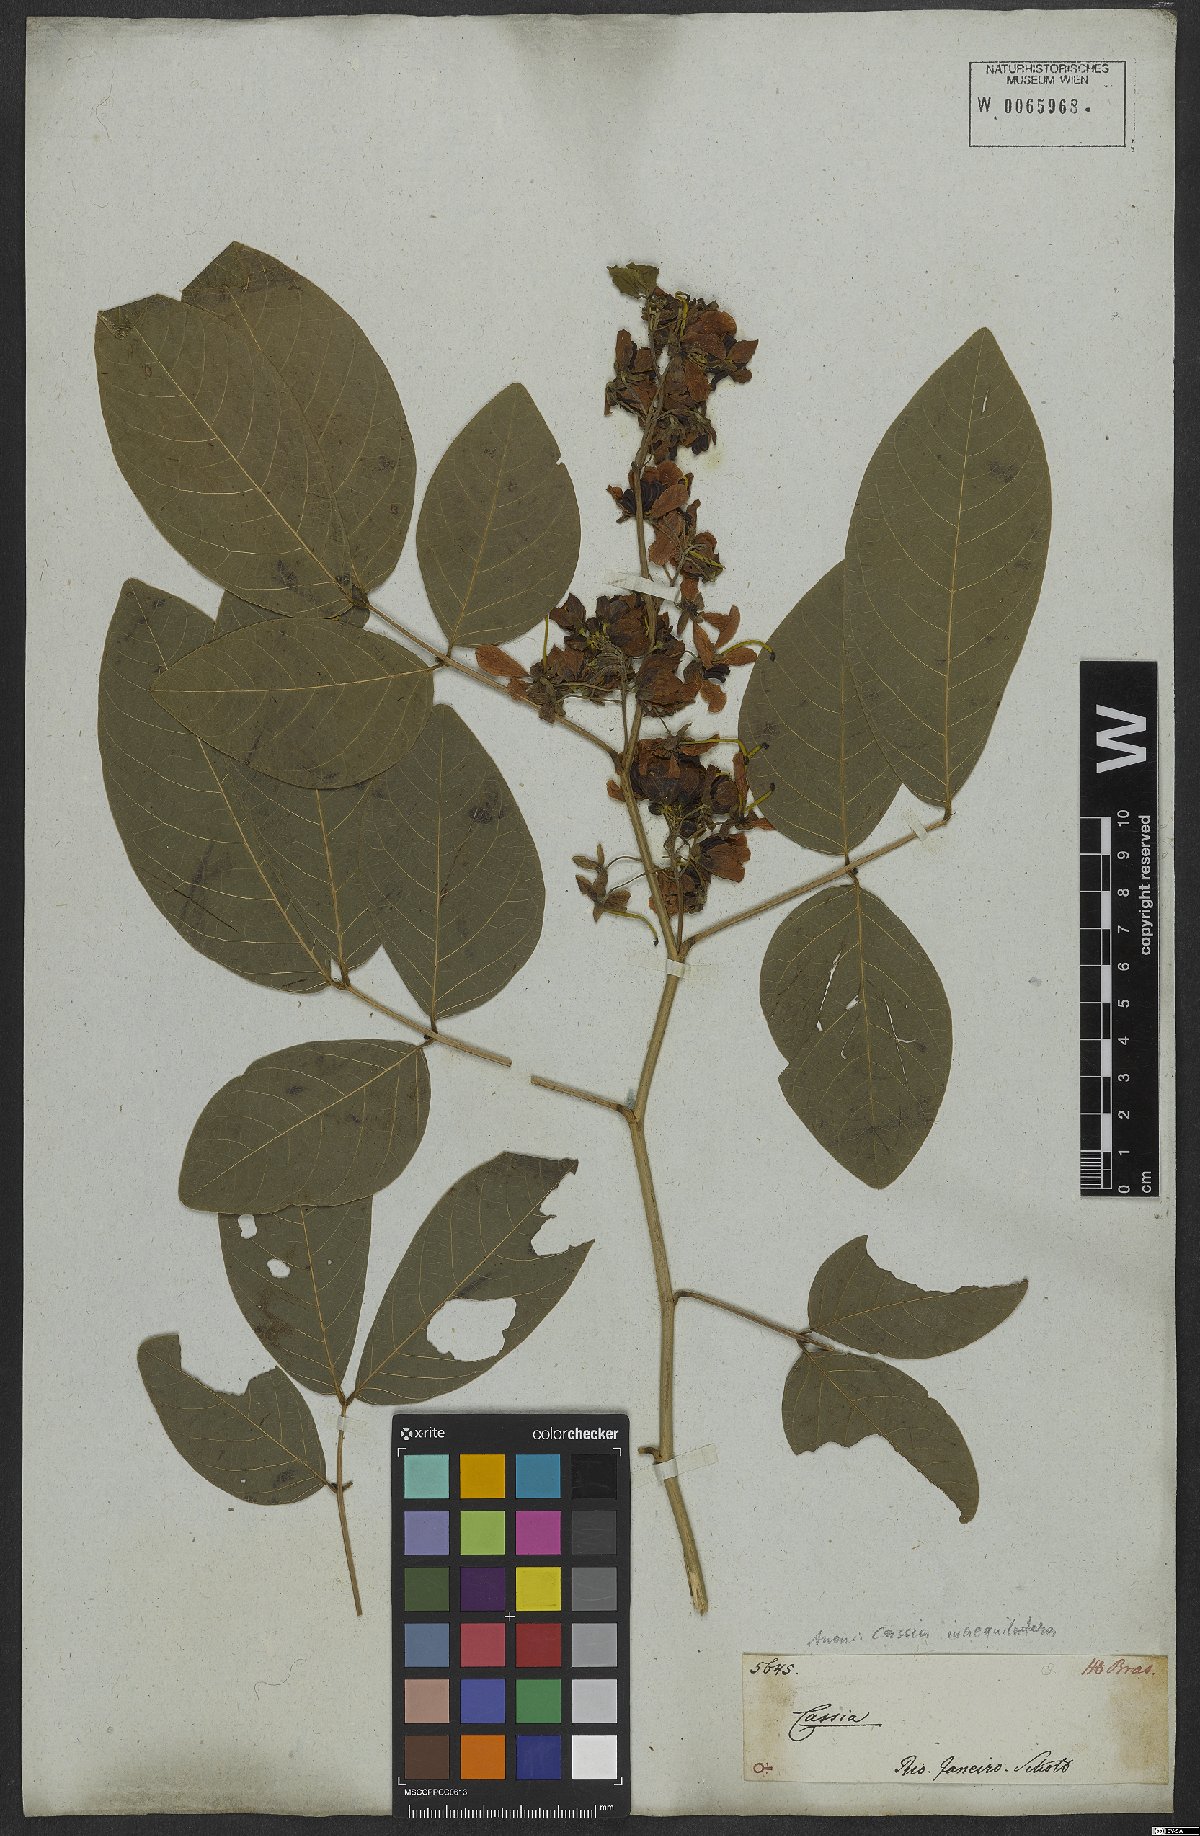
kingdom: Plantae
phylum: Tracheophyta
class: Magnoliopsida
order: Fabales
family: Fabaceae
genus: Senna
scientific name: Senna bacillaris
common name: West indian showertree
